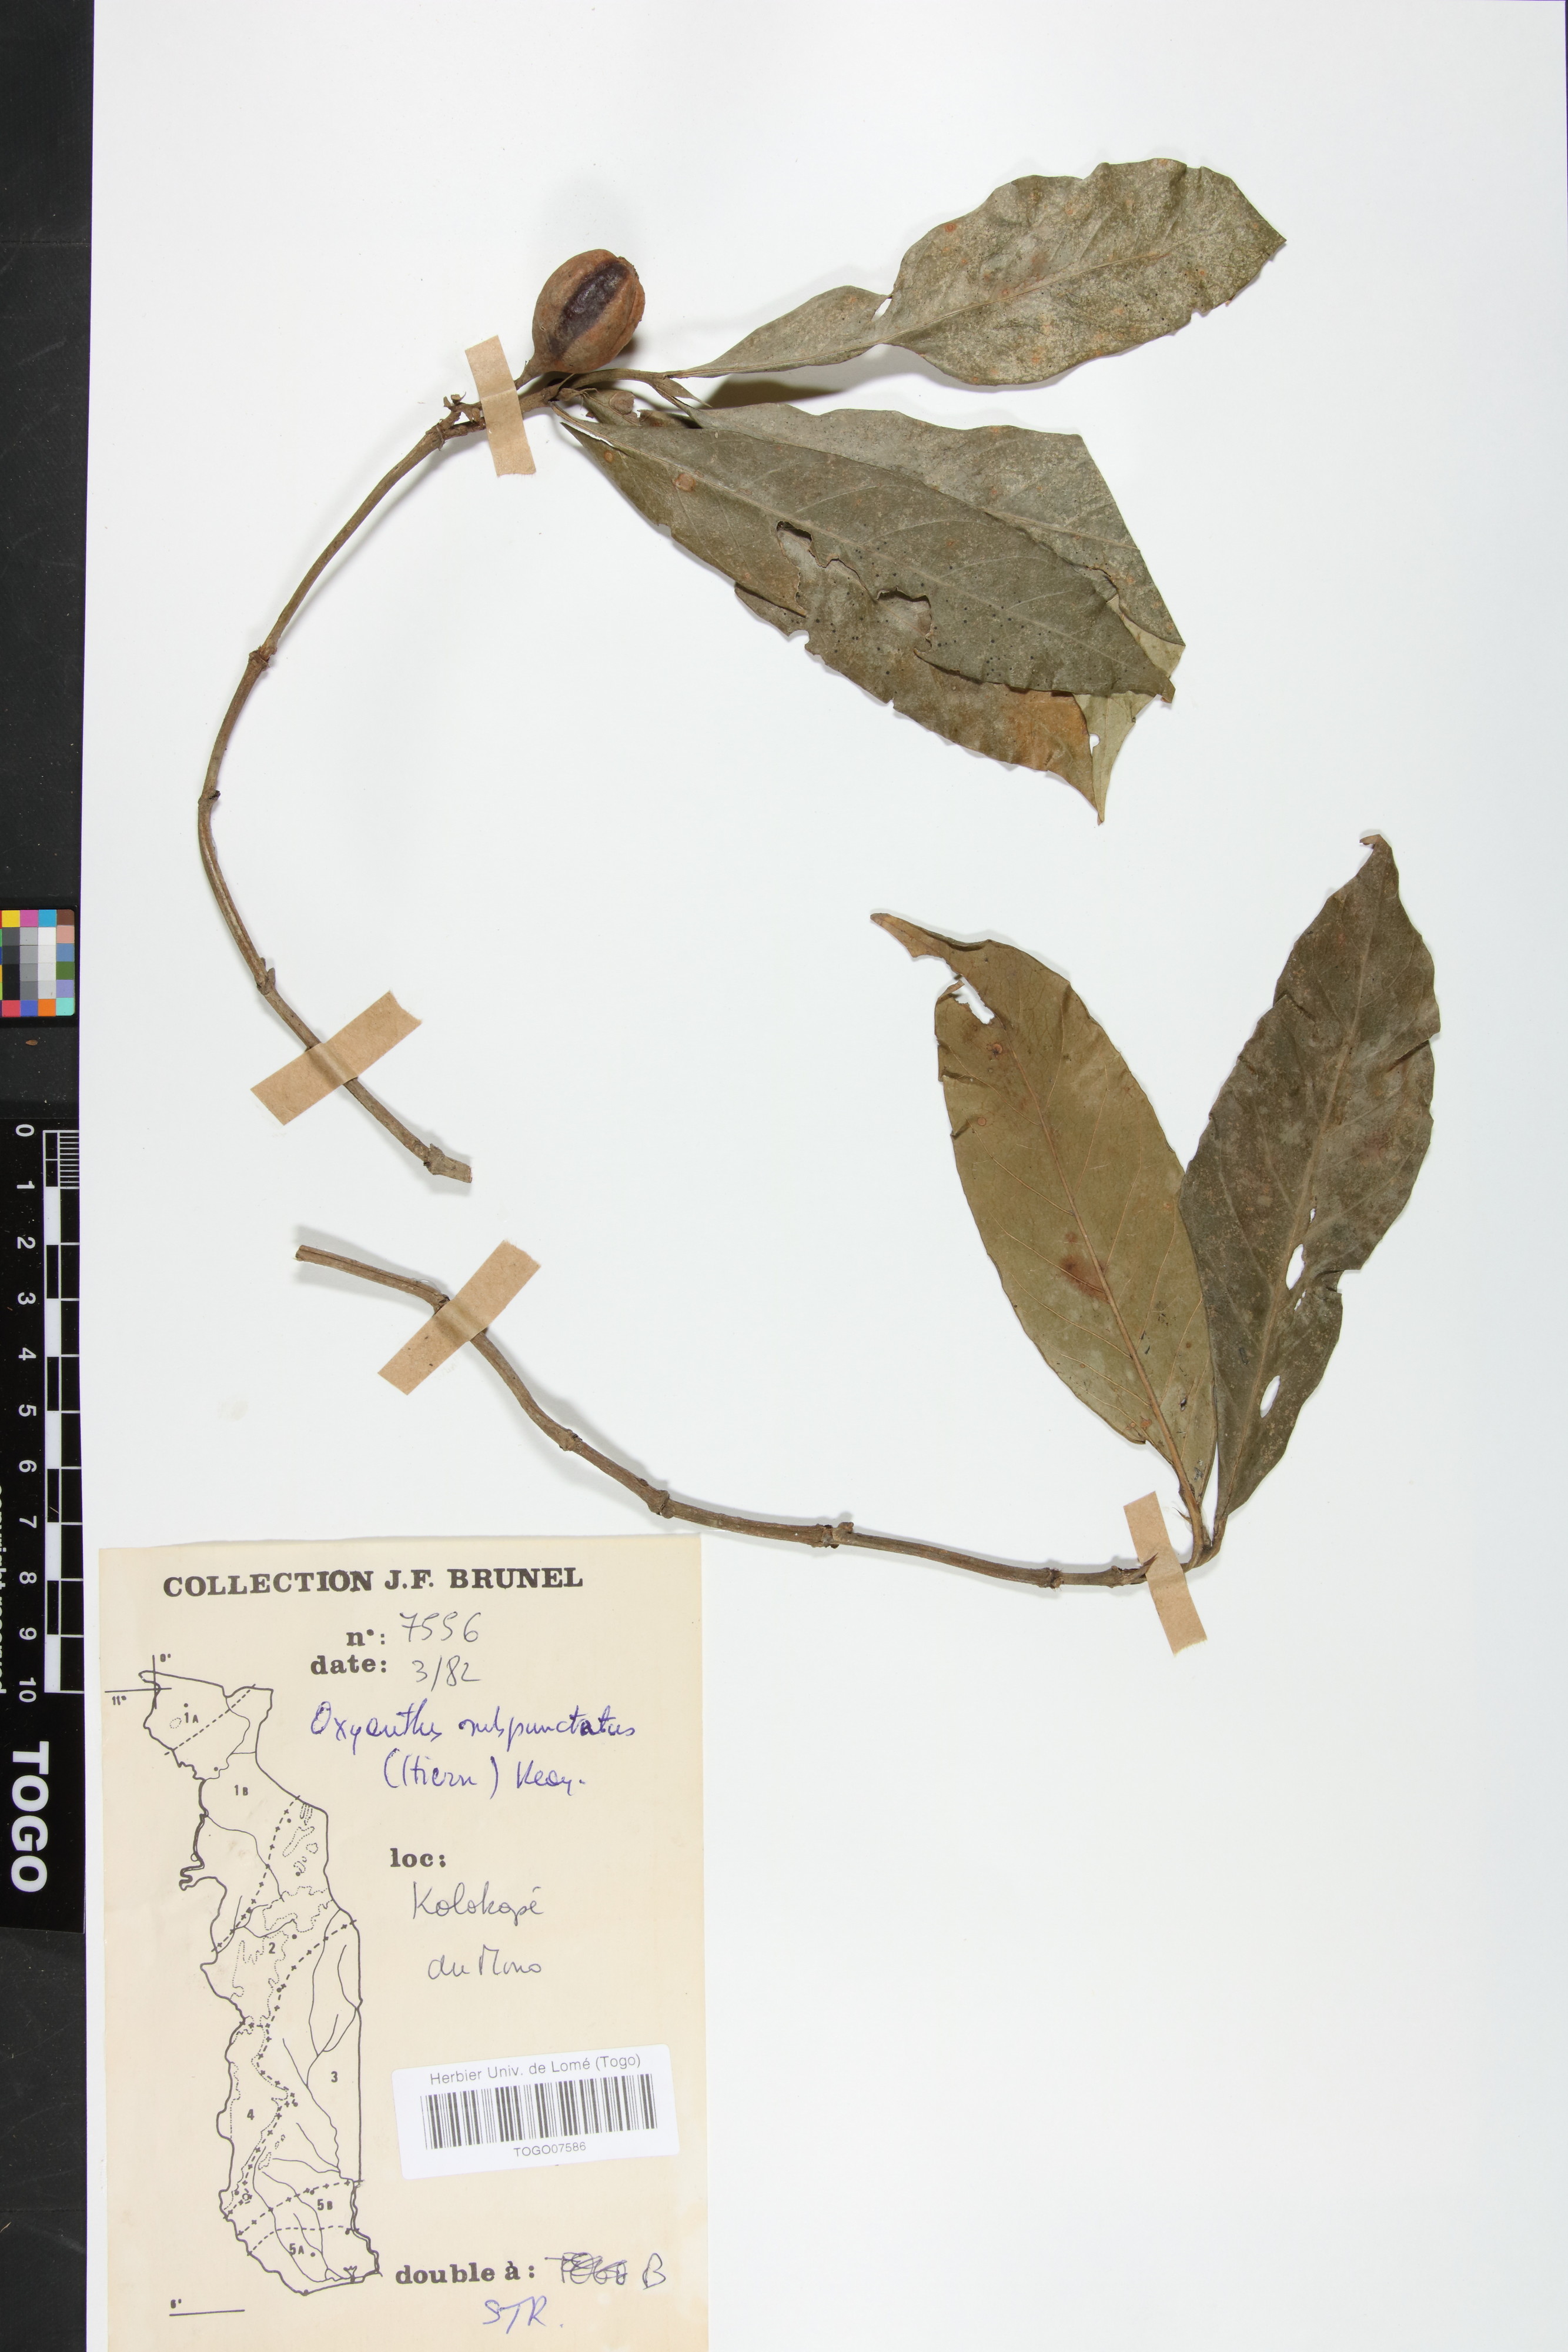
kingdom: Plantae
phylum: Tracheophyta
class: Magnoliopsida
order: Gentianales
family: Rubiaceae
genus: Oxyanthus
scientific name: Oxyanthus subpunctatus
